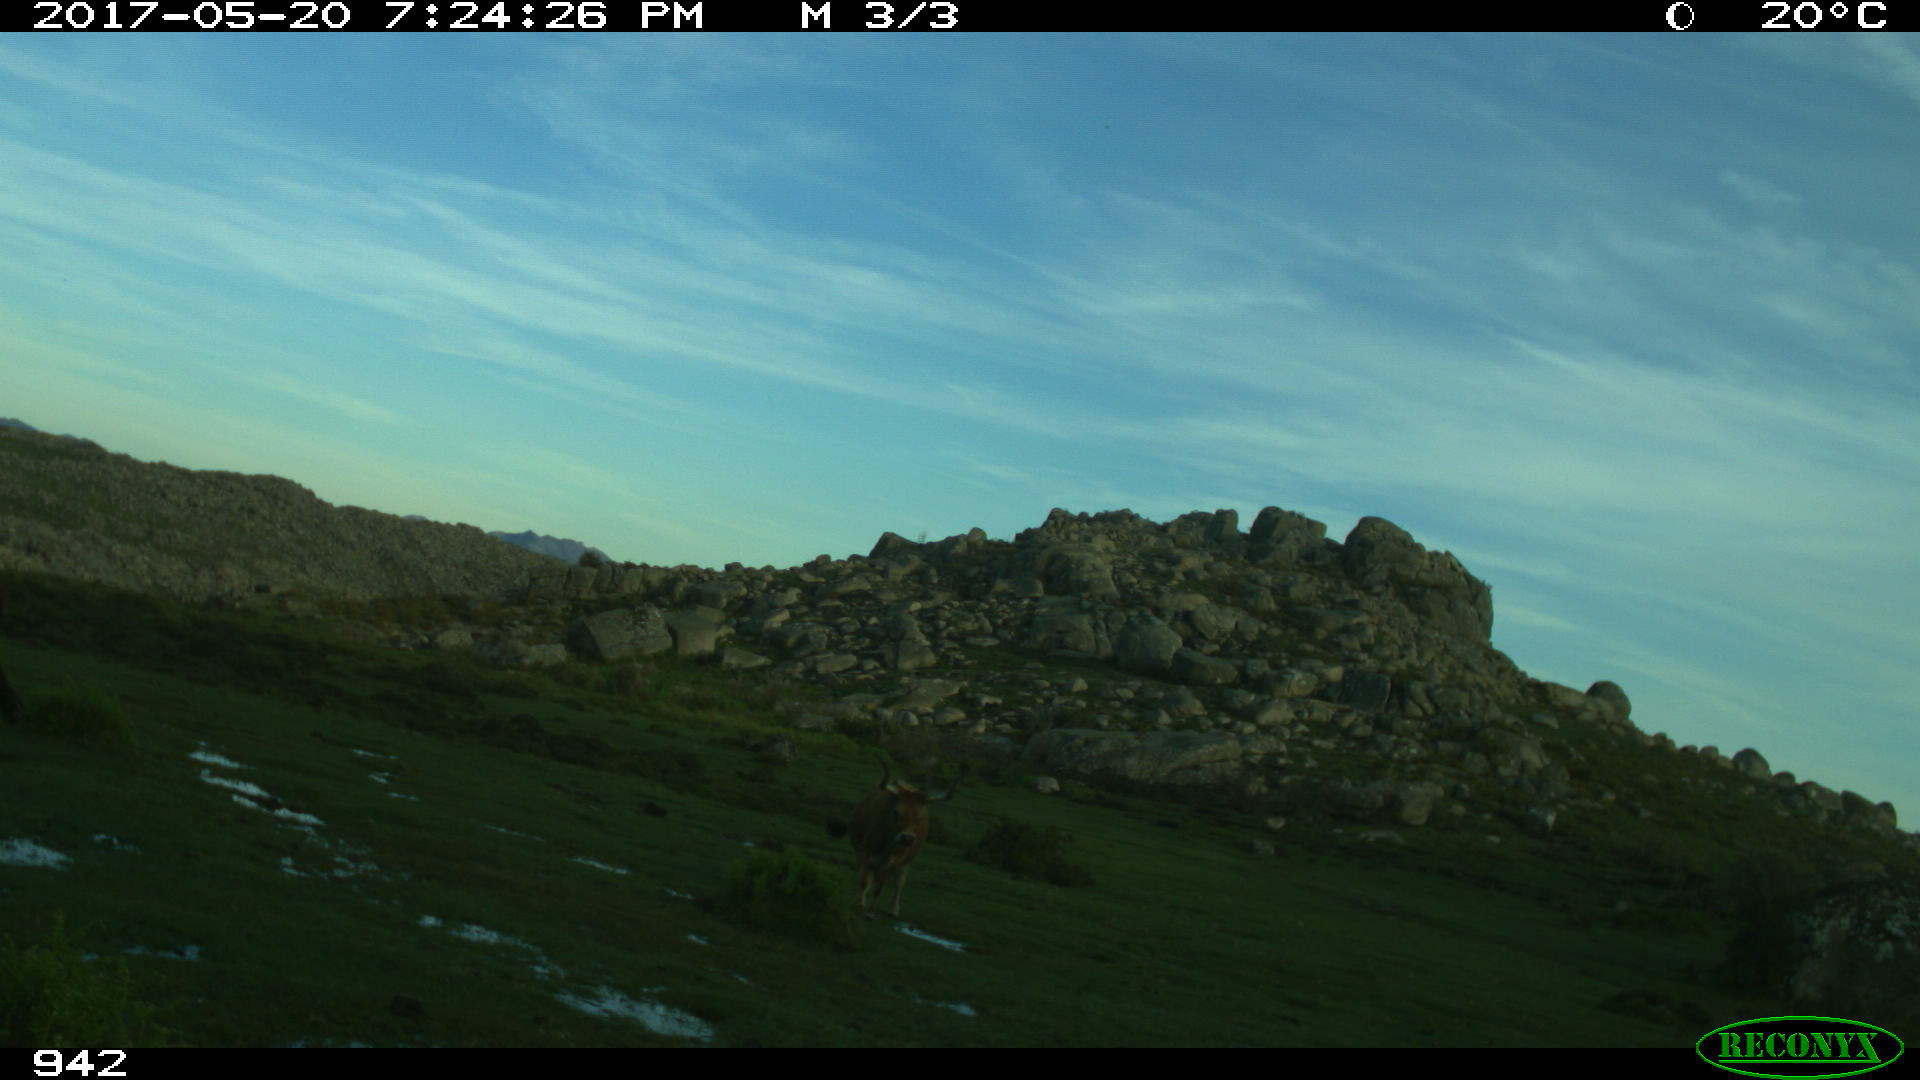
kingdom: Animalia
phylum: Chordata
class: Mammalia
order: Artiodactyla
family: Bovidae
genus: Bos
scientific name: Bos taurus
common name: Domesticated cattle
